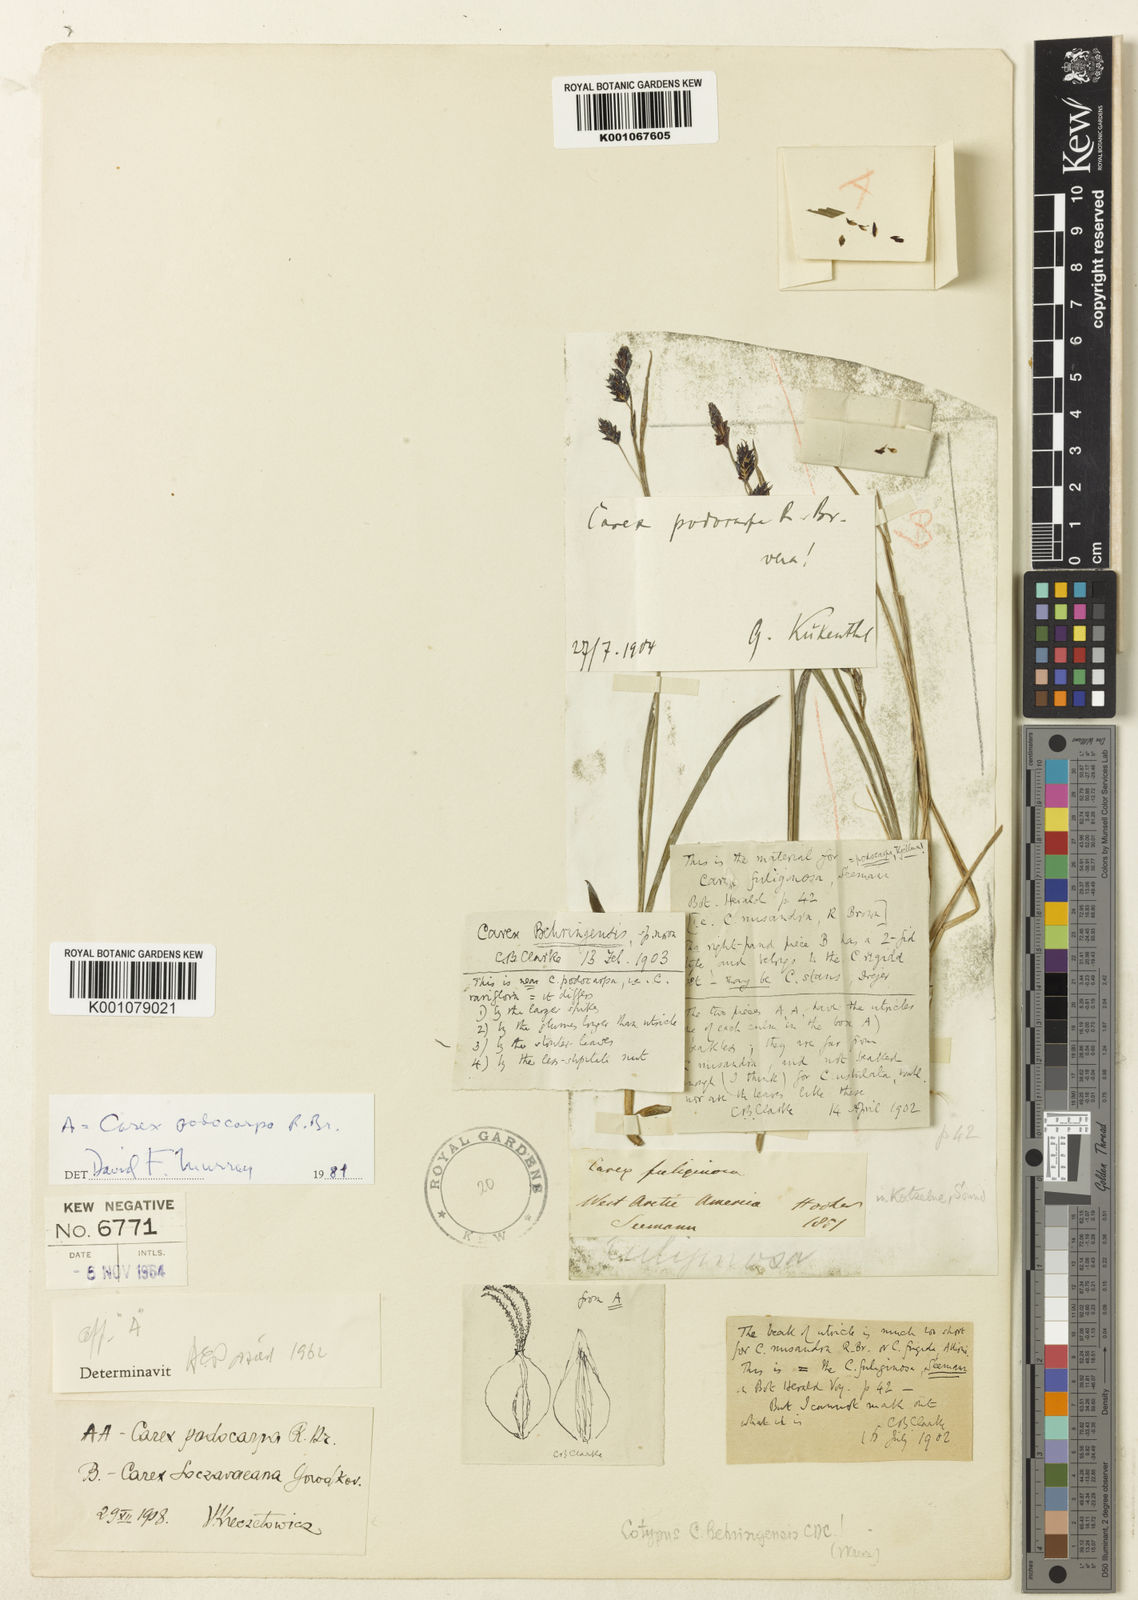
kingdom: Plantae
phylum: Tracheophyta
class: Liliopsida
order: Poales
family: Cyperaceae
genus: Carex
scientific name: Carex podocarpa
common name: Alpine sedge
